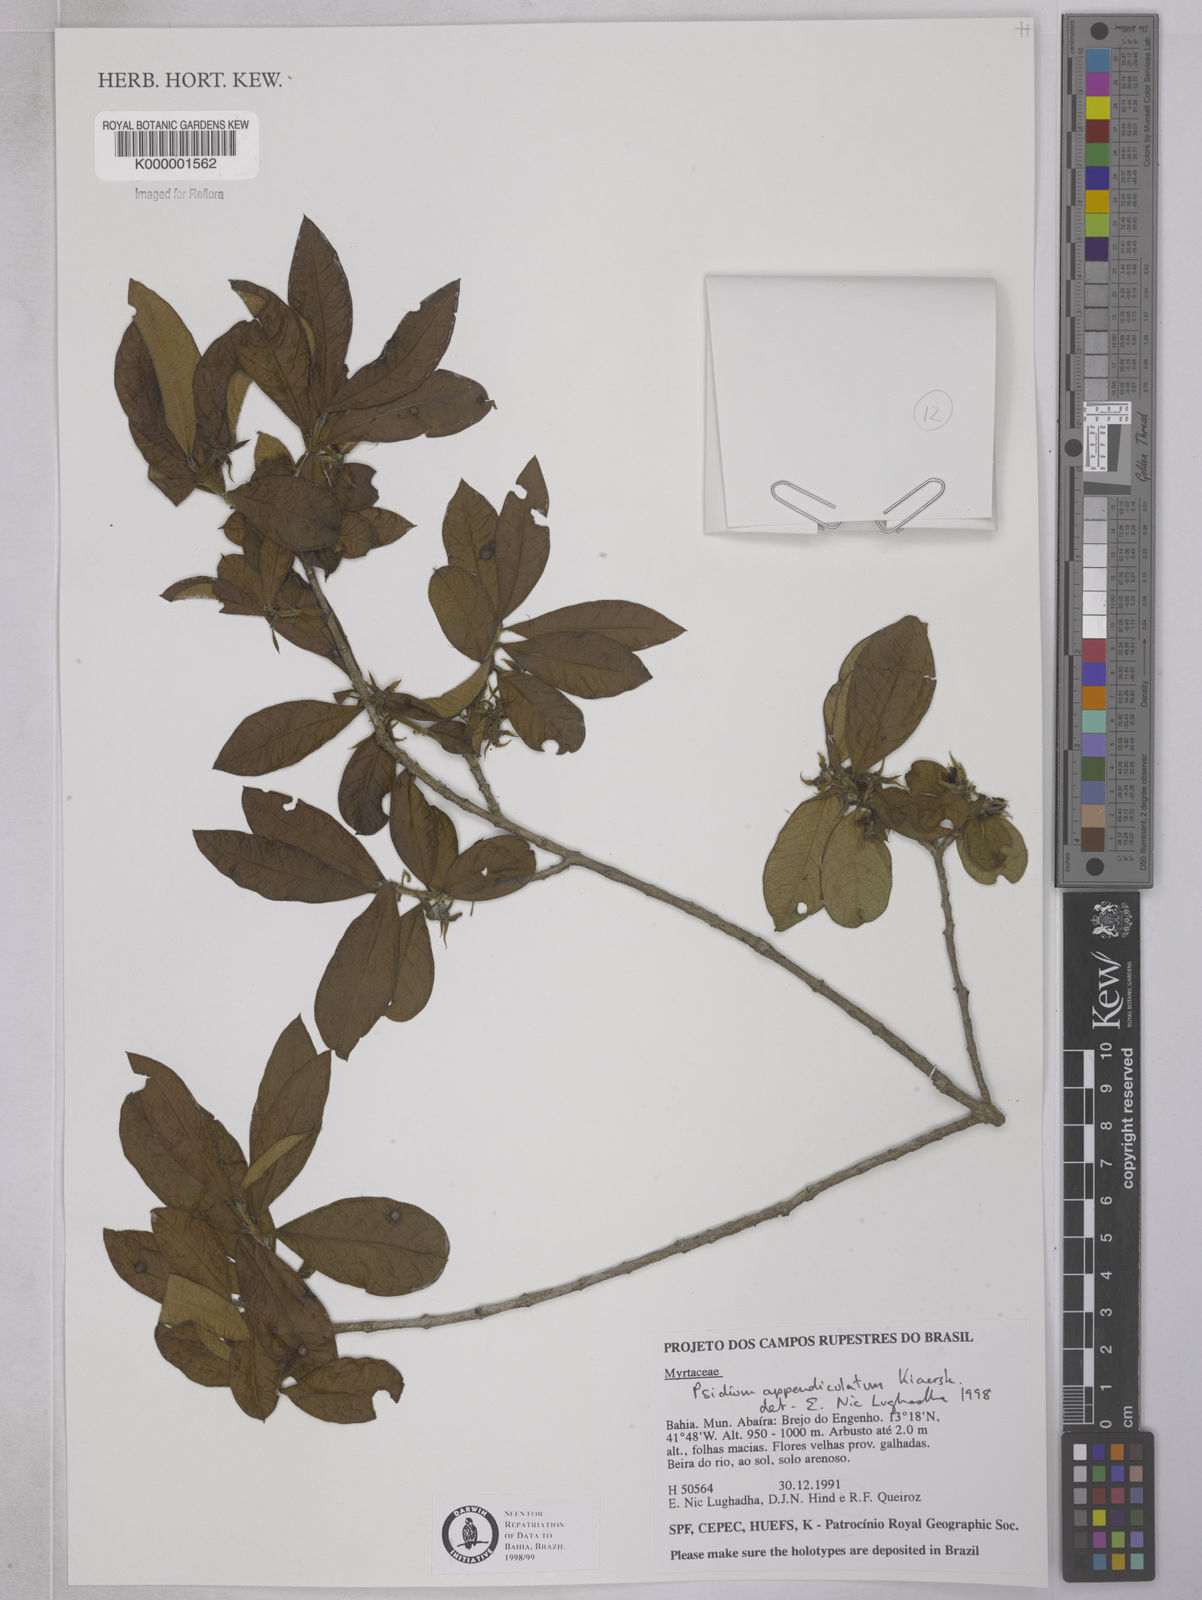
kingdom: Plantae
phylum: Tracheophyta
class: Magnoliopsida
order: Myrtales
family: Myrtaceae
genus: Psidium
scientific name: Psidium appendiculatum
